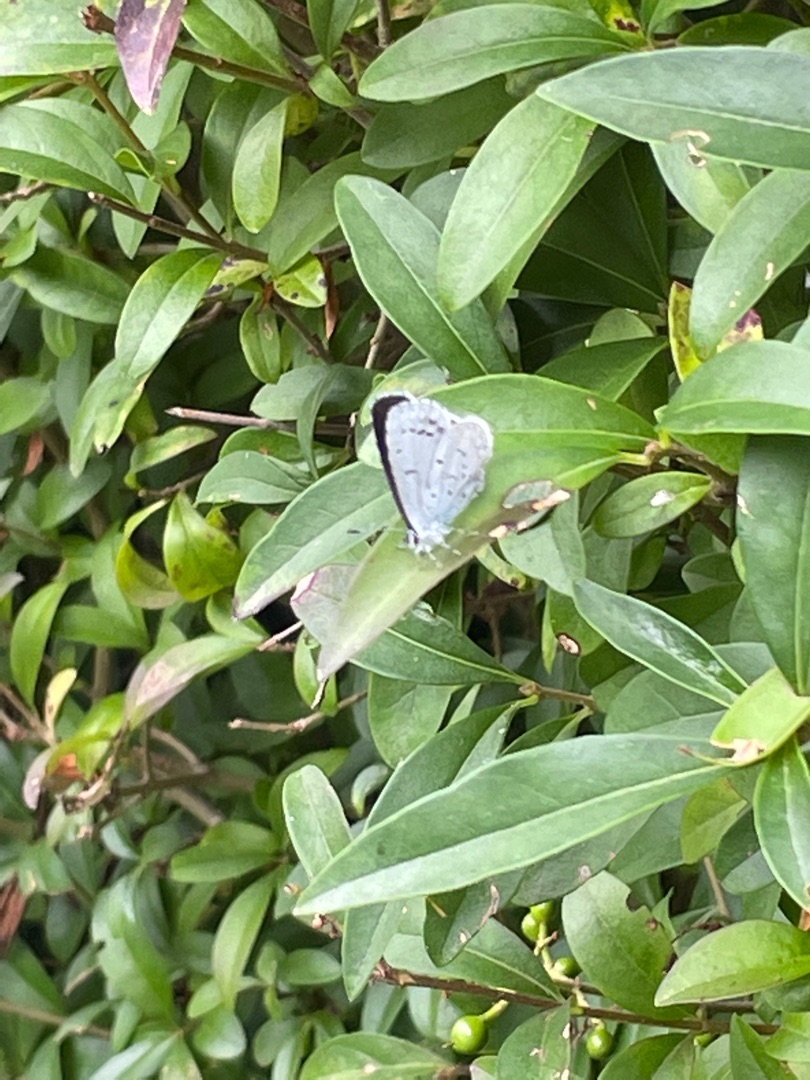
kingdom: Animalia
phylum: Arthropoda
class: Insecta
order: Lepidoptera
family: Lycaenidae
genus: Celastrina
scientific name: Celastrina argiolus
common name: Skovblåfugl
